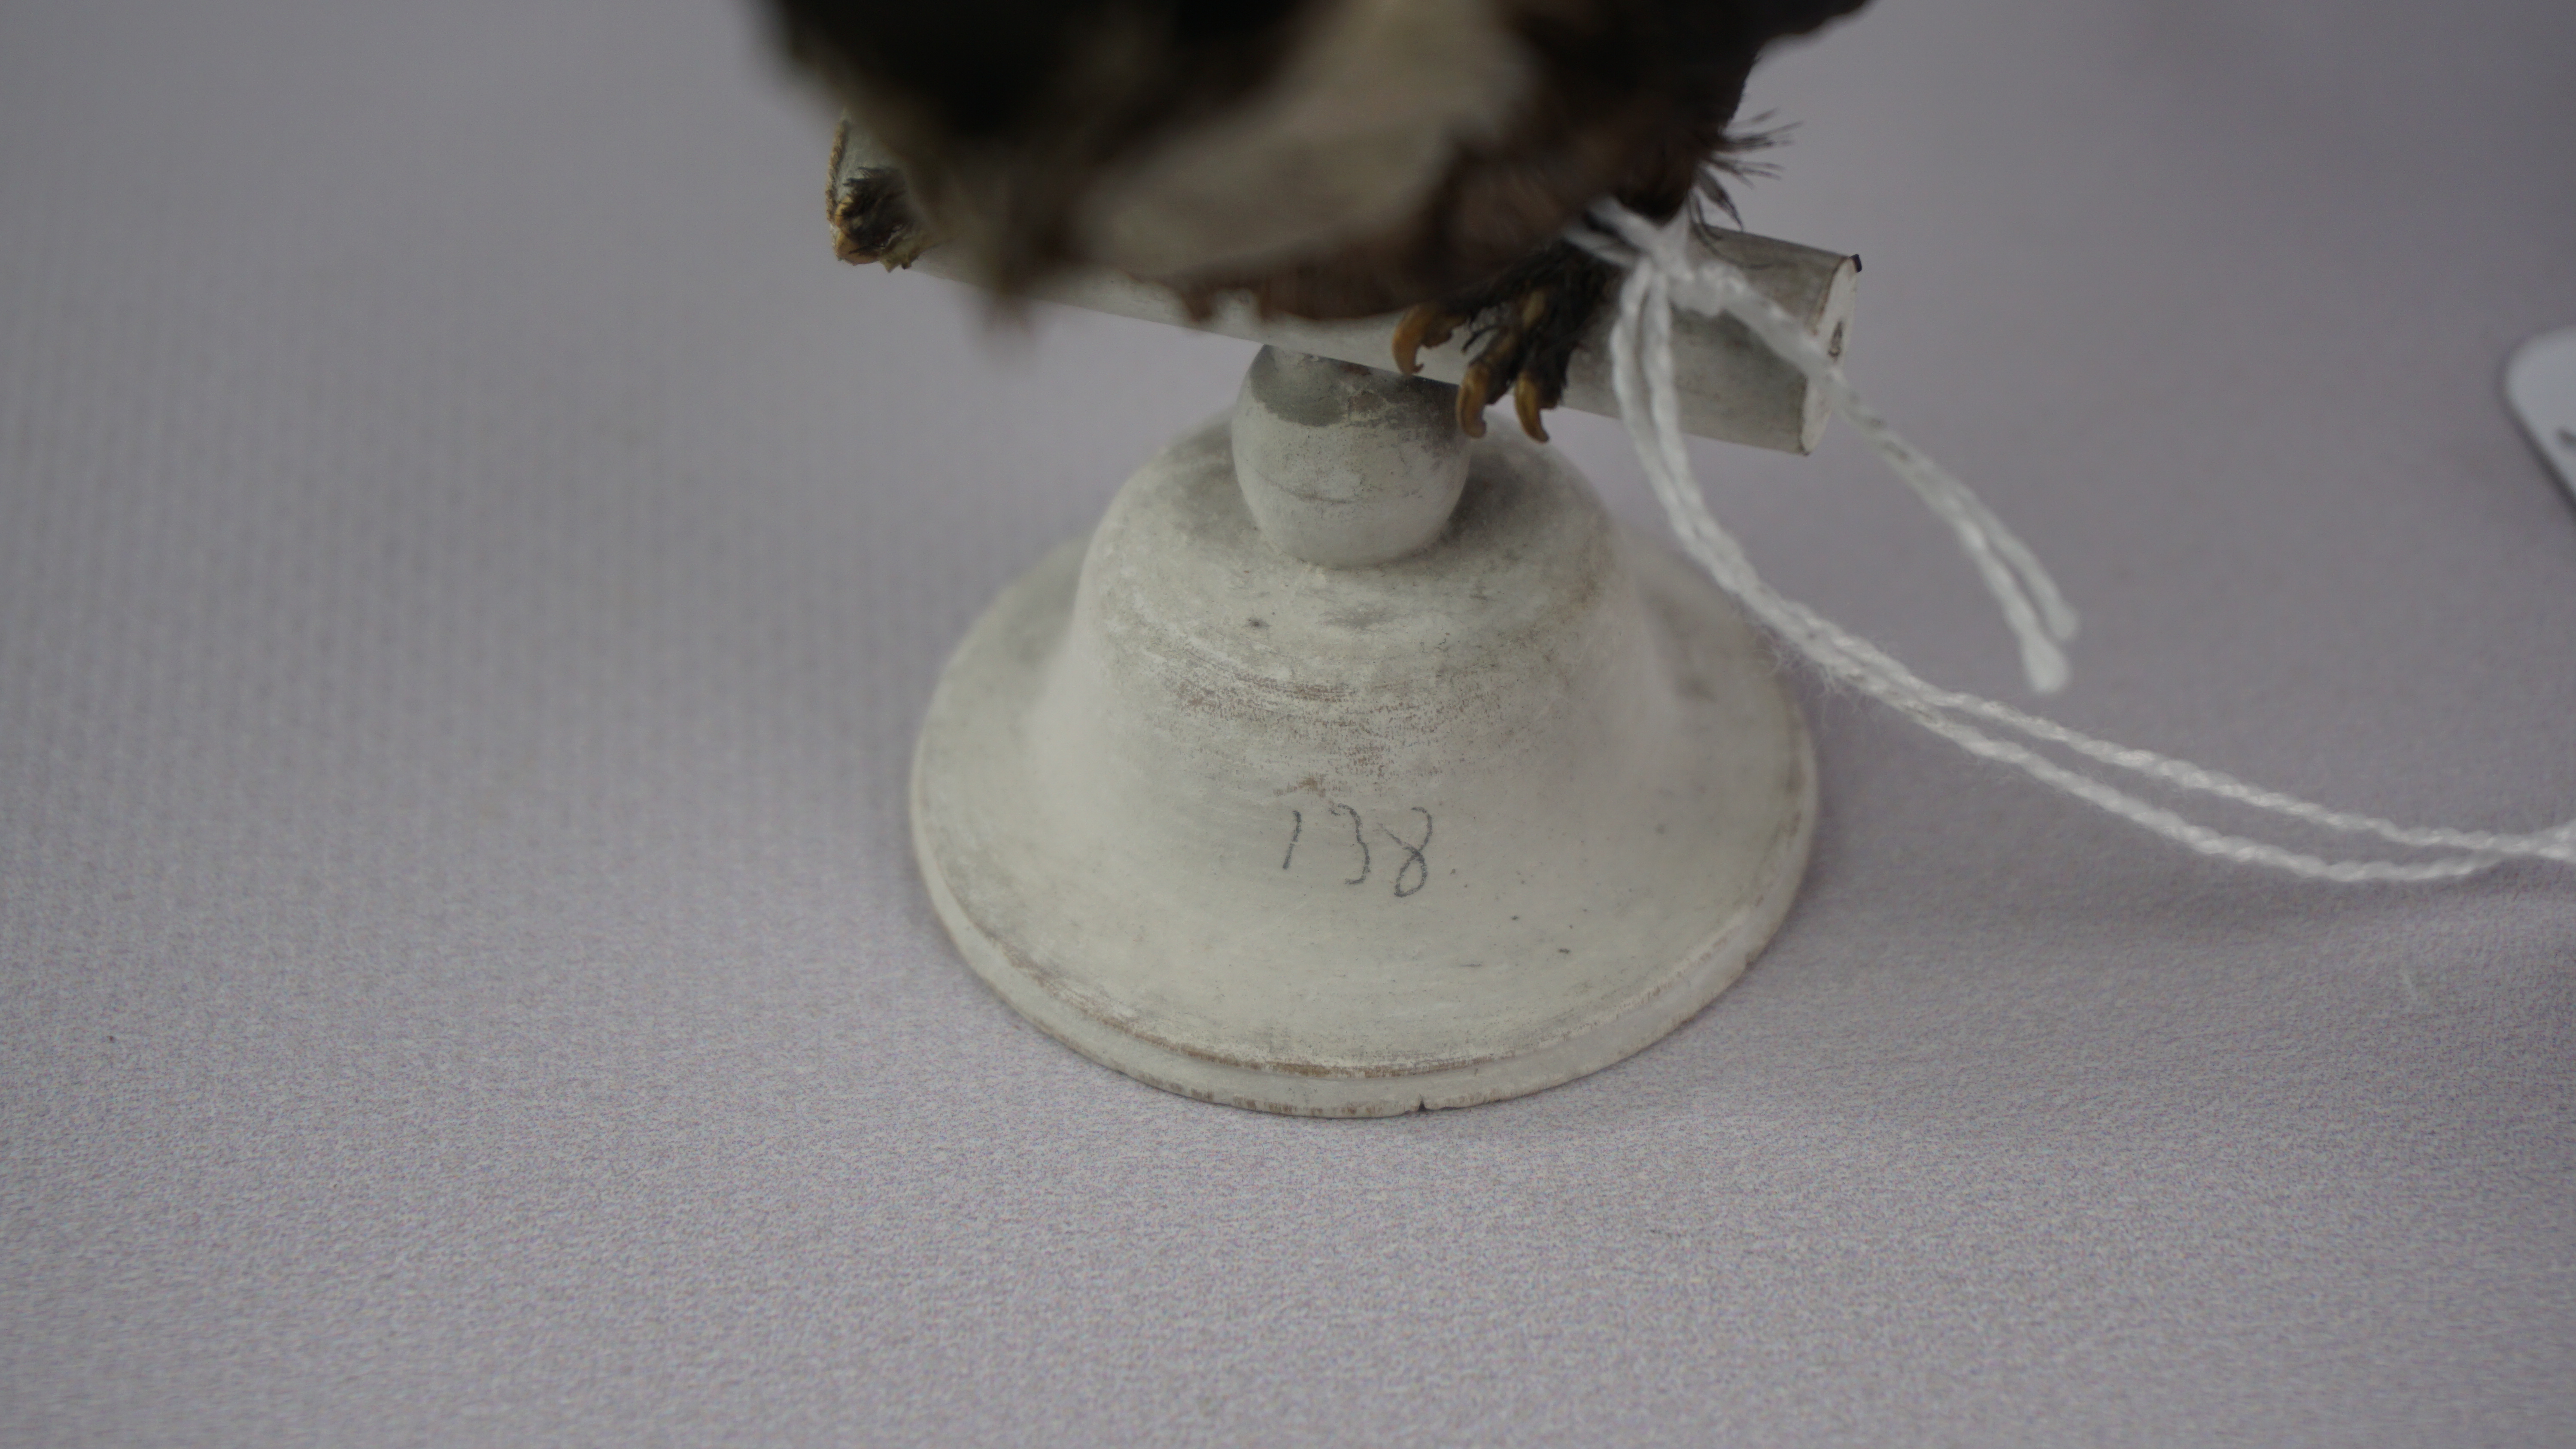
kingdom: Animalia
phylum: Chordata
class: Aves
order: Apodiformes
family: Apodidae
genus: Panyptila
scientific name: Panyptila cayennensis
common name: Lesser swallow-tailed swift
